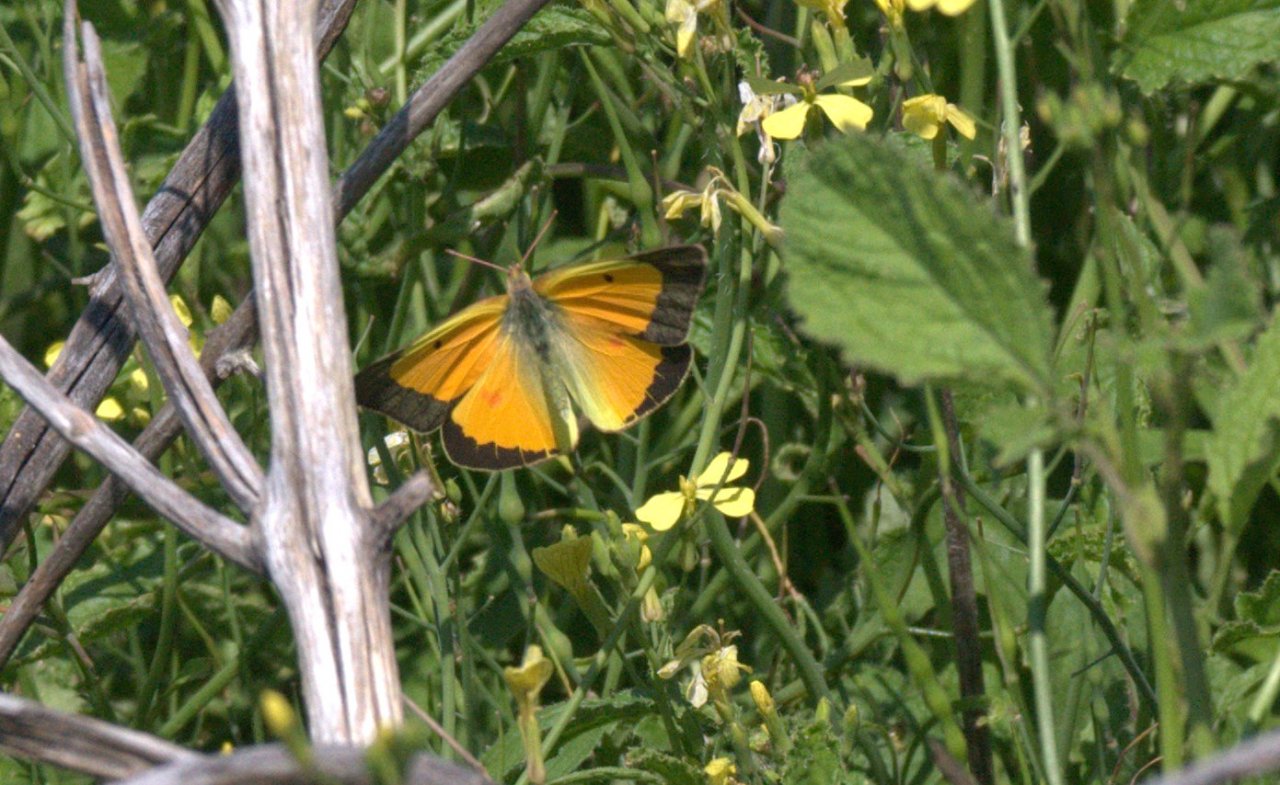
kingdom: Animalia
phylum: Arthropoda
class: Insecta
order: Lepidoptera
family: Pieridae
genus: Colias
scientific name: Colias eurytheme
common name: Orange Sulphur
